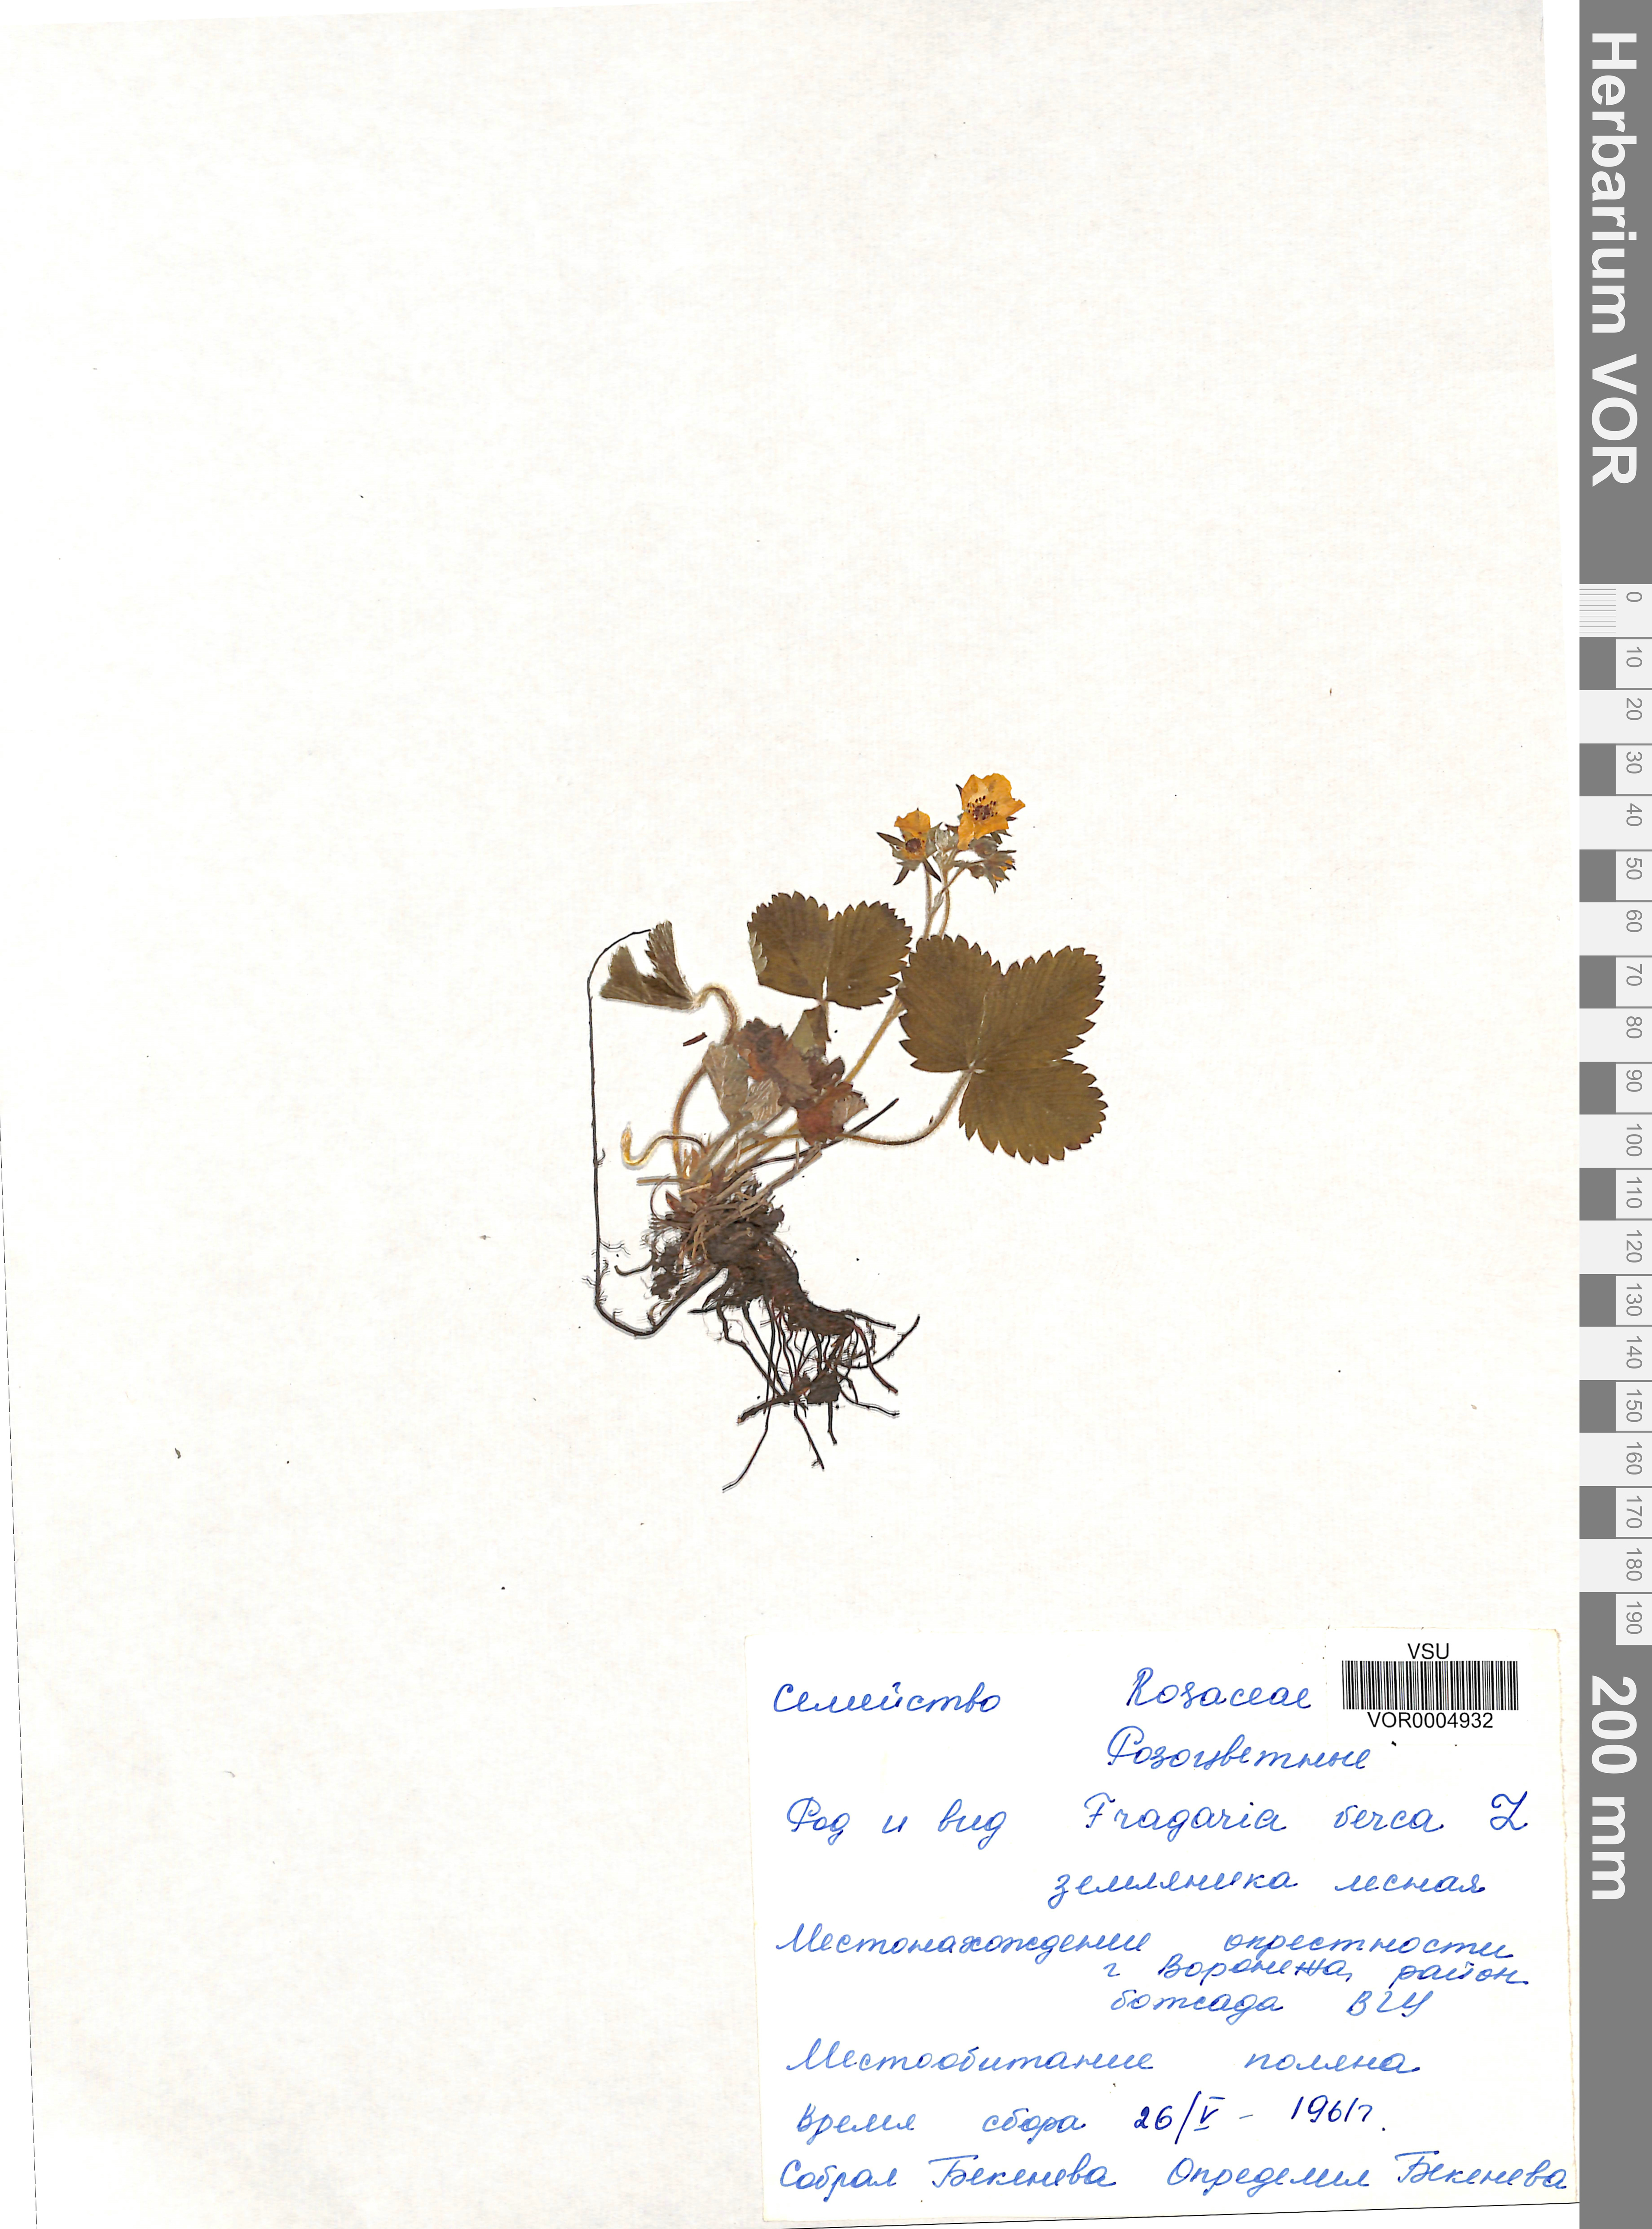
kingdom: Plantae
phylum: Tracheophyta
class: Magnoliopsida
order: Rosales
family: Rosaceae
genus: Fragaria
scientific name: Fragaria vesca
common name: Wild strawberry
